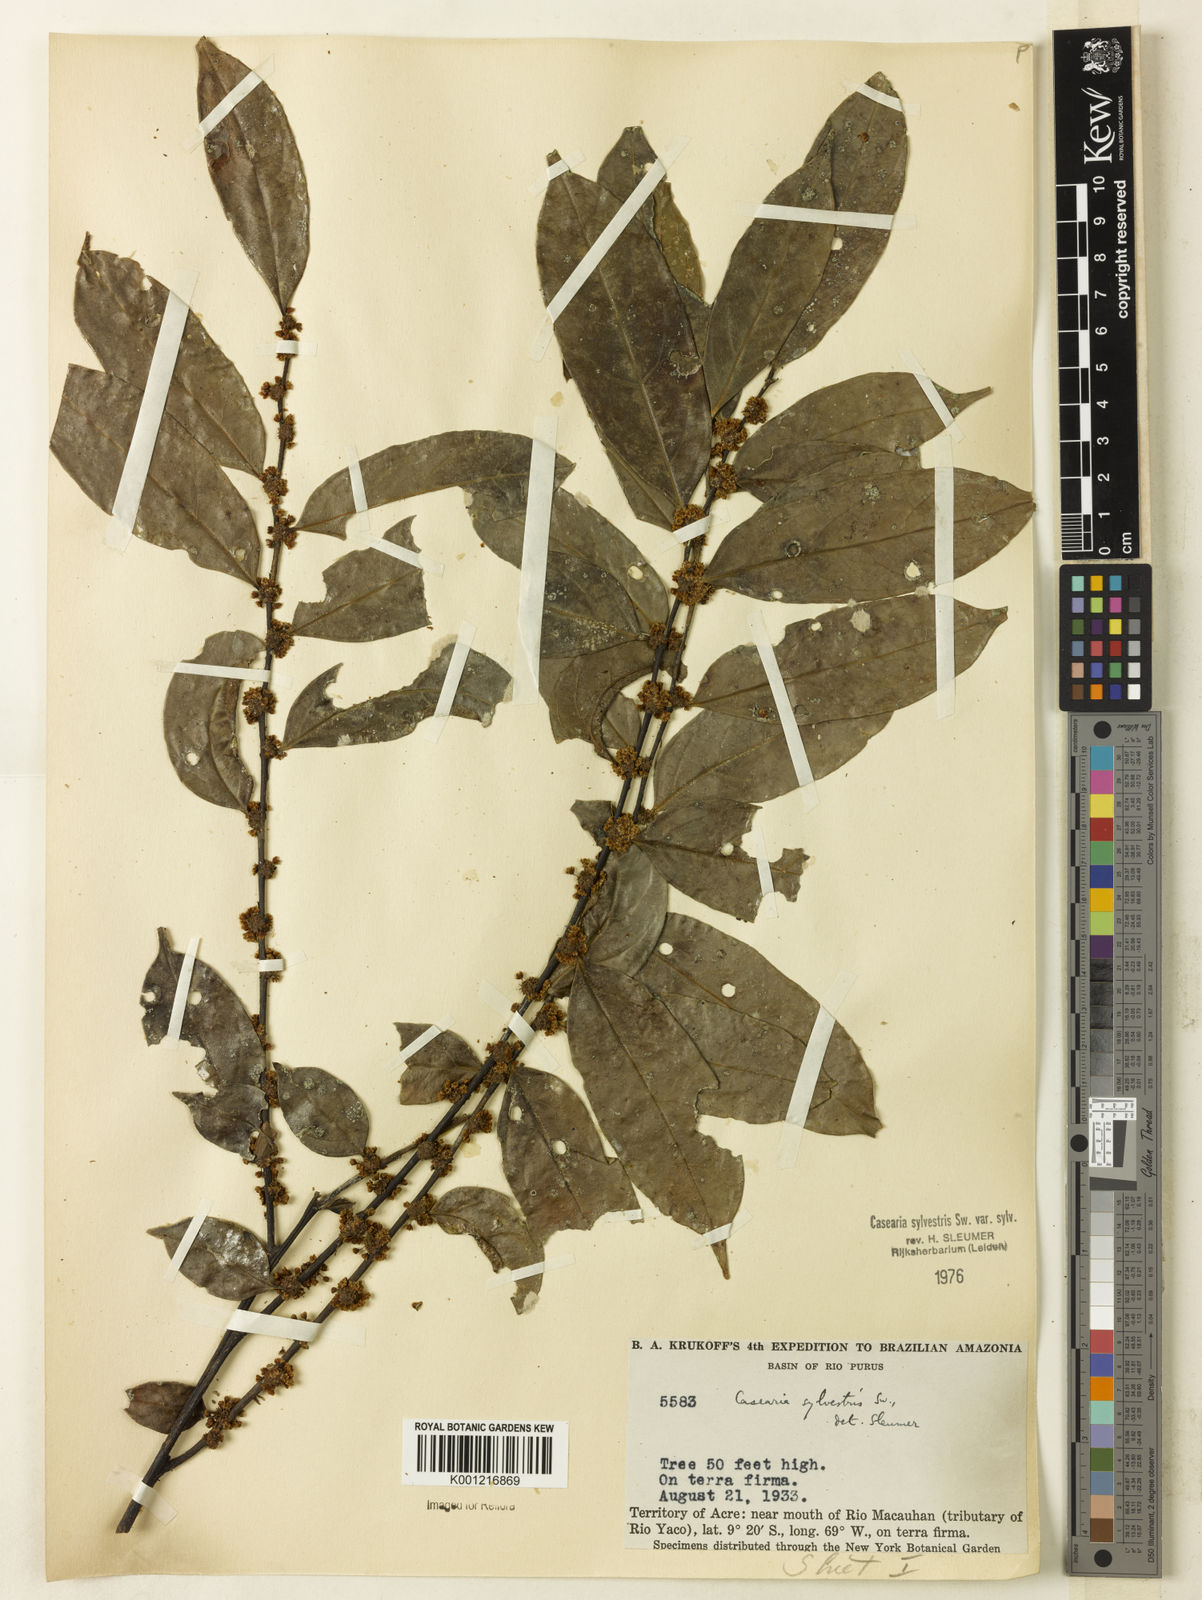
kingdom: Plantae
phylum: Tracheophyta
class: Magnoliopsida
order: Malpighiales
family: Salicaceae
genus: Casearia
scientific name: Casearia sylvestris
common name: Wild sage
